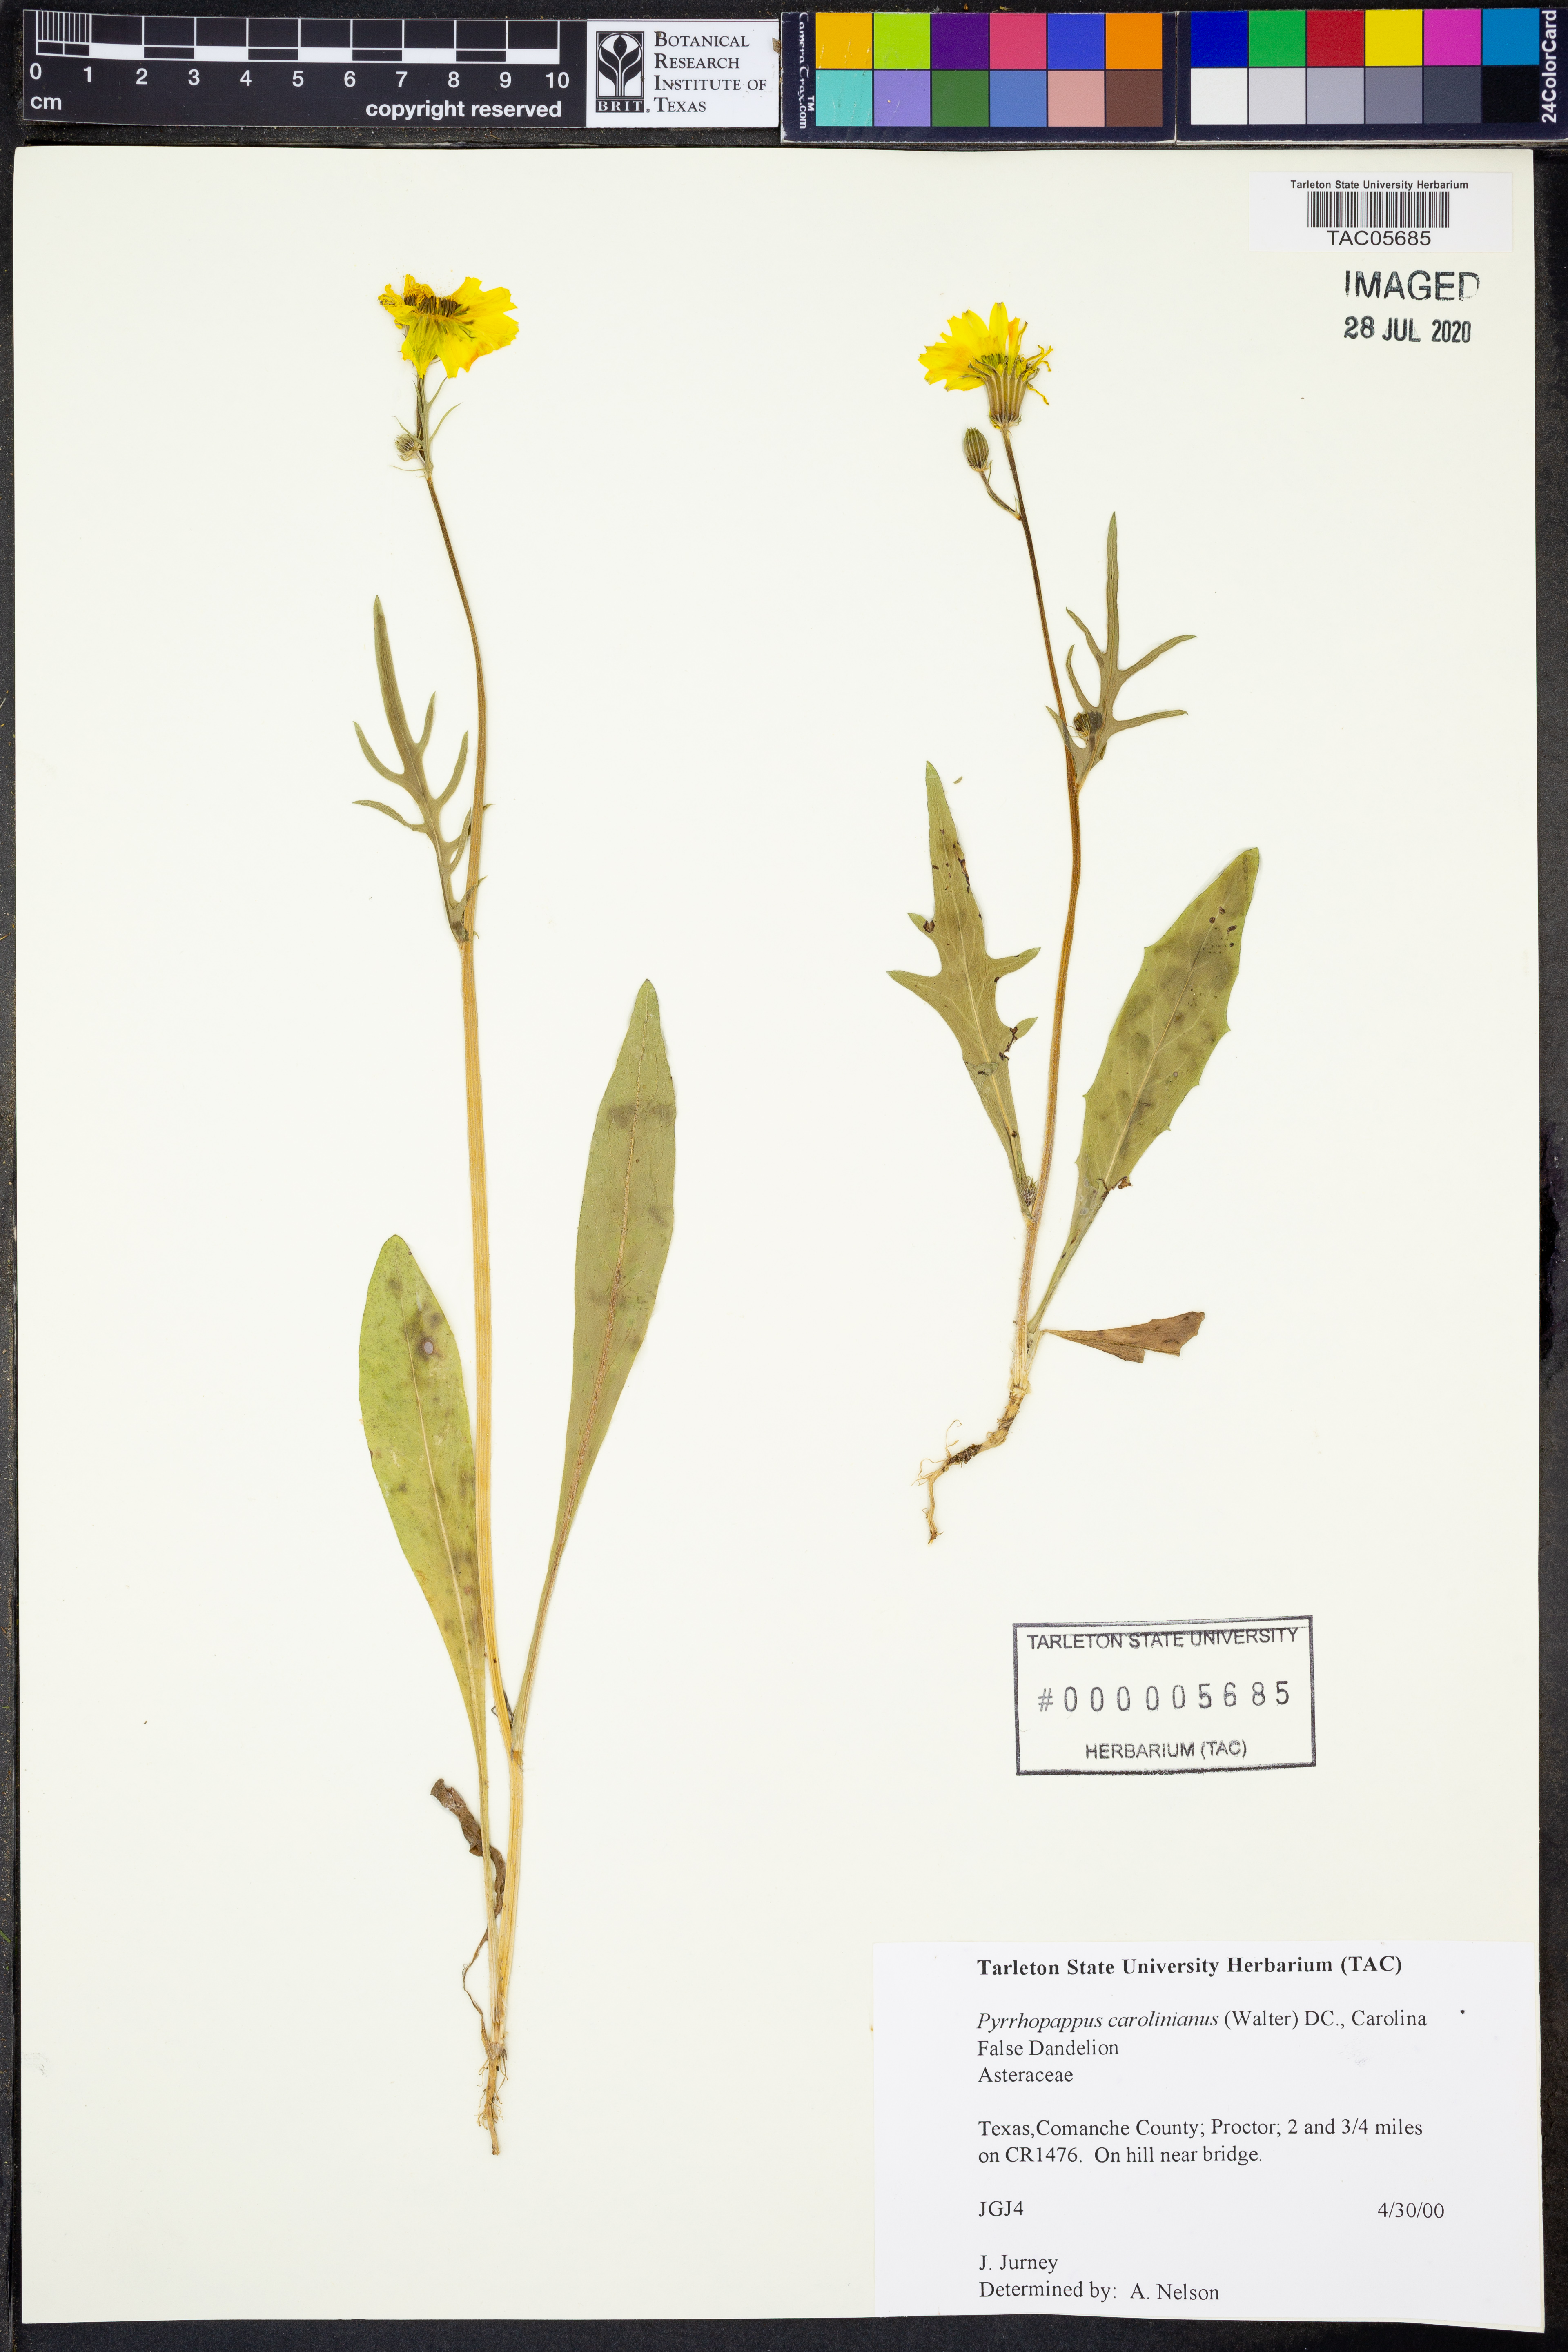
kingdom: Plantae
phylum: Tracheophyta
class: Magnoliopsida
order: Asterales
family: Asteraceae
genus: Pyrrhopappus
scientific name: Pyrrhopappus carolinianus
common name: Carolina desert-chicory
